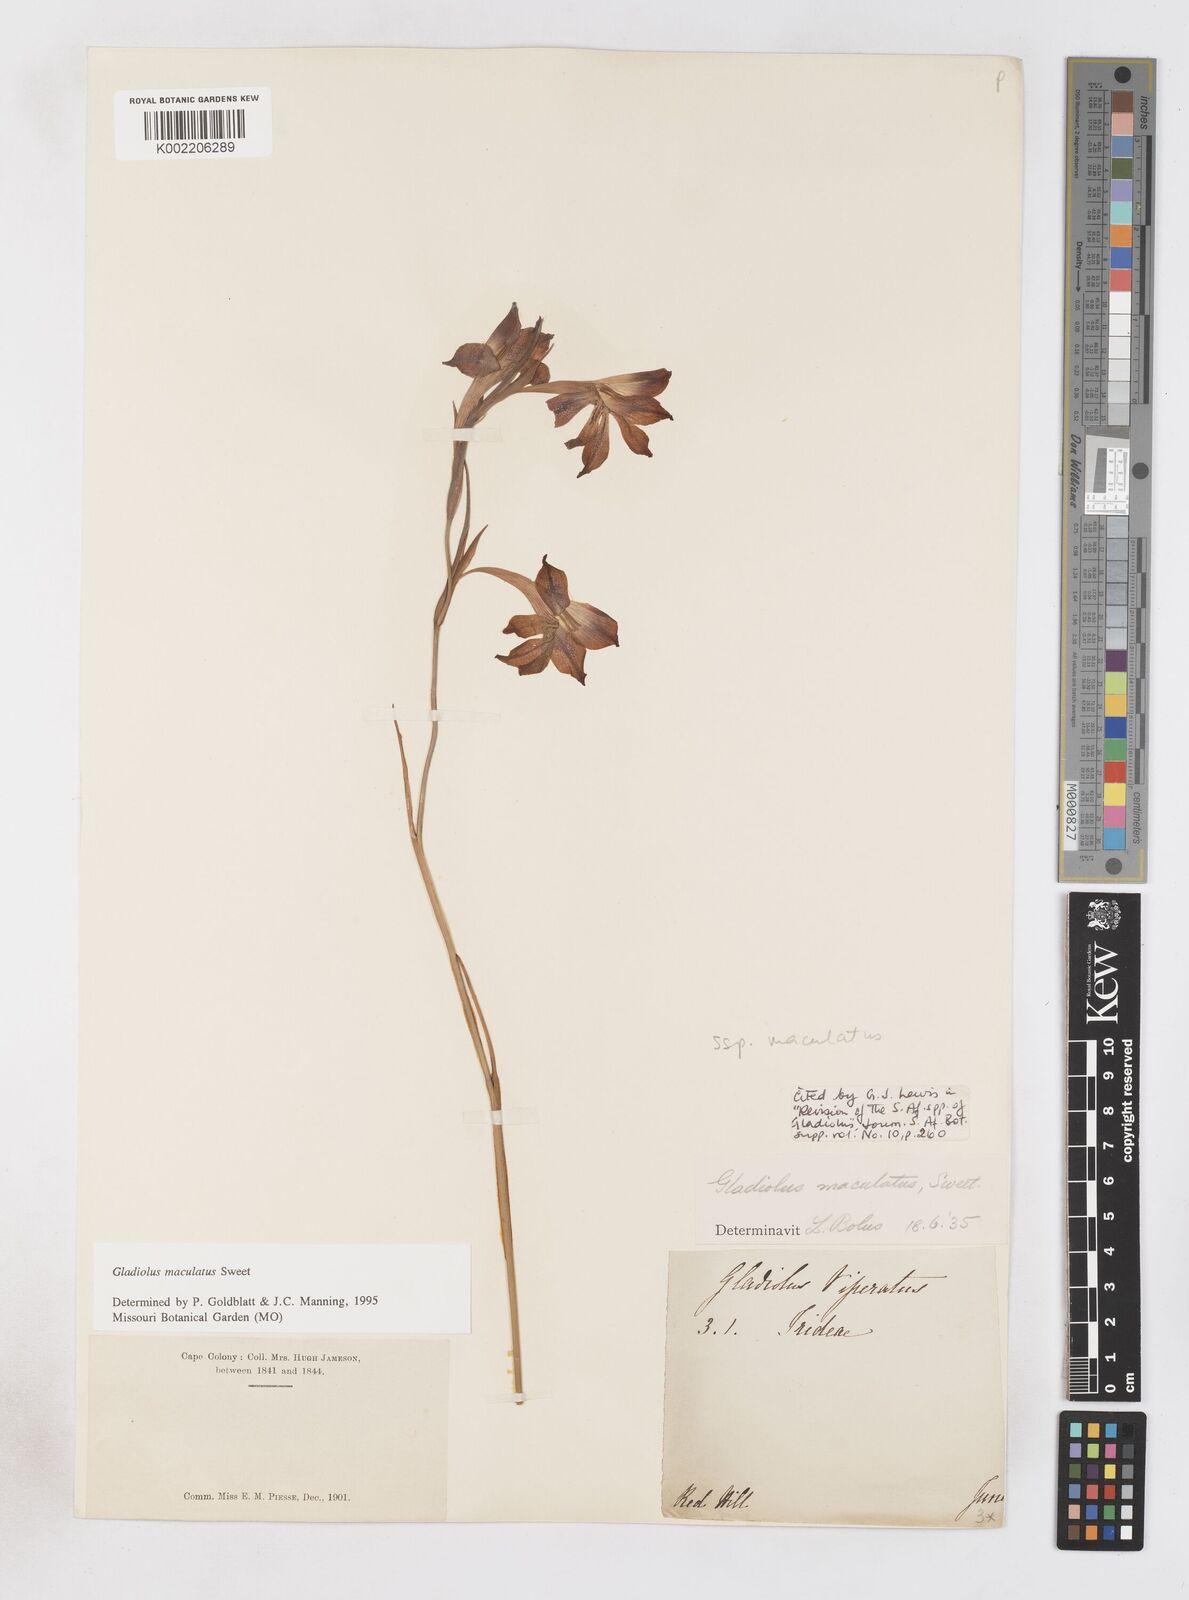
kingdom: Plantae
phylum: Tracheophyta
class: Liliopsida
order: Asparagales
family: Iridaceae
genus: Gladiolus
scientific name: Gladiolus maculatus
